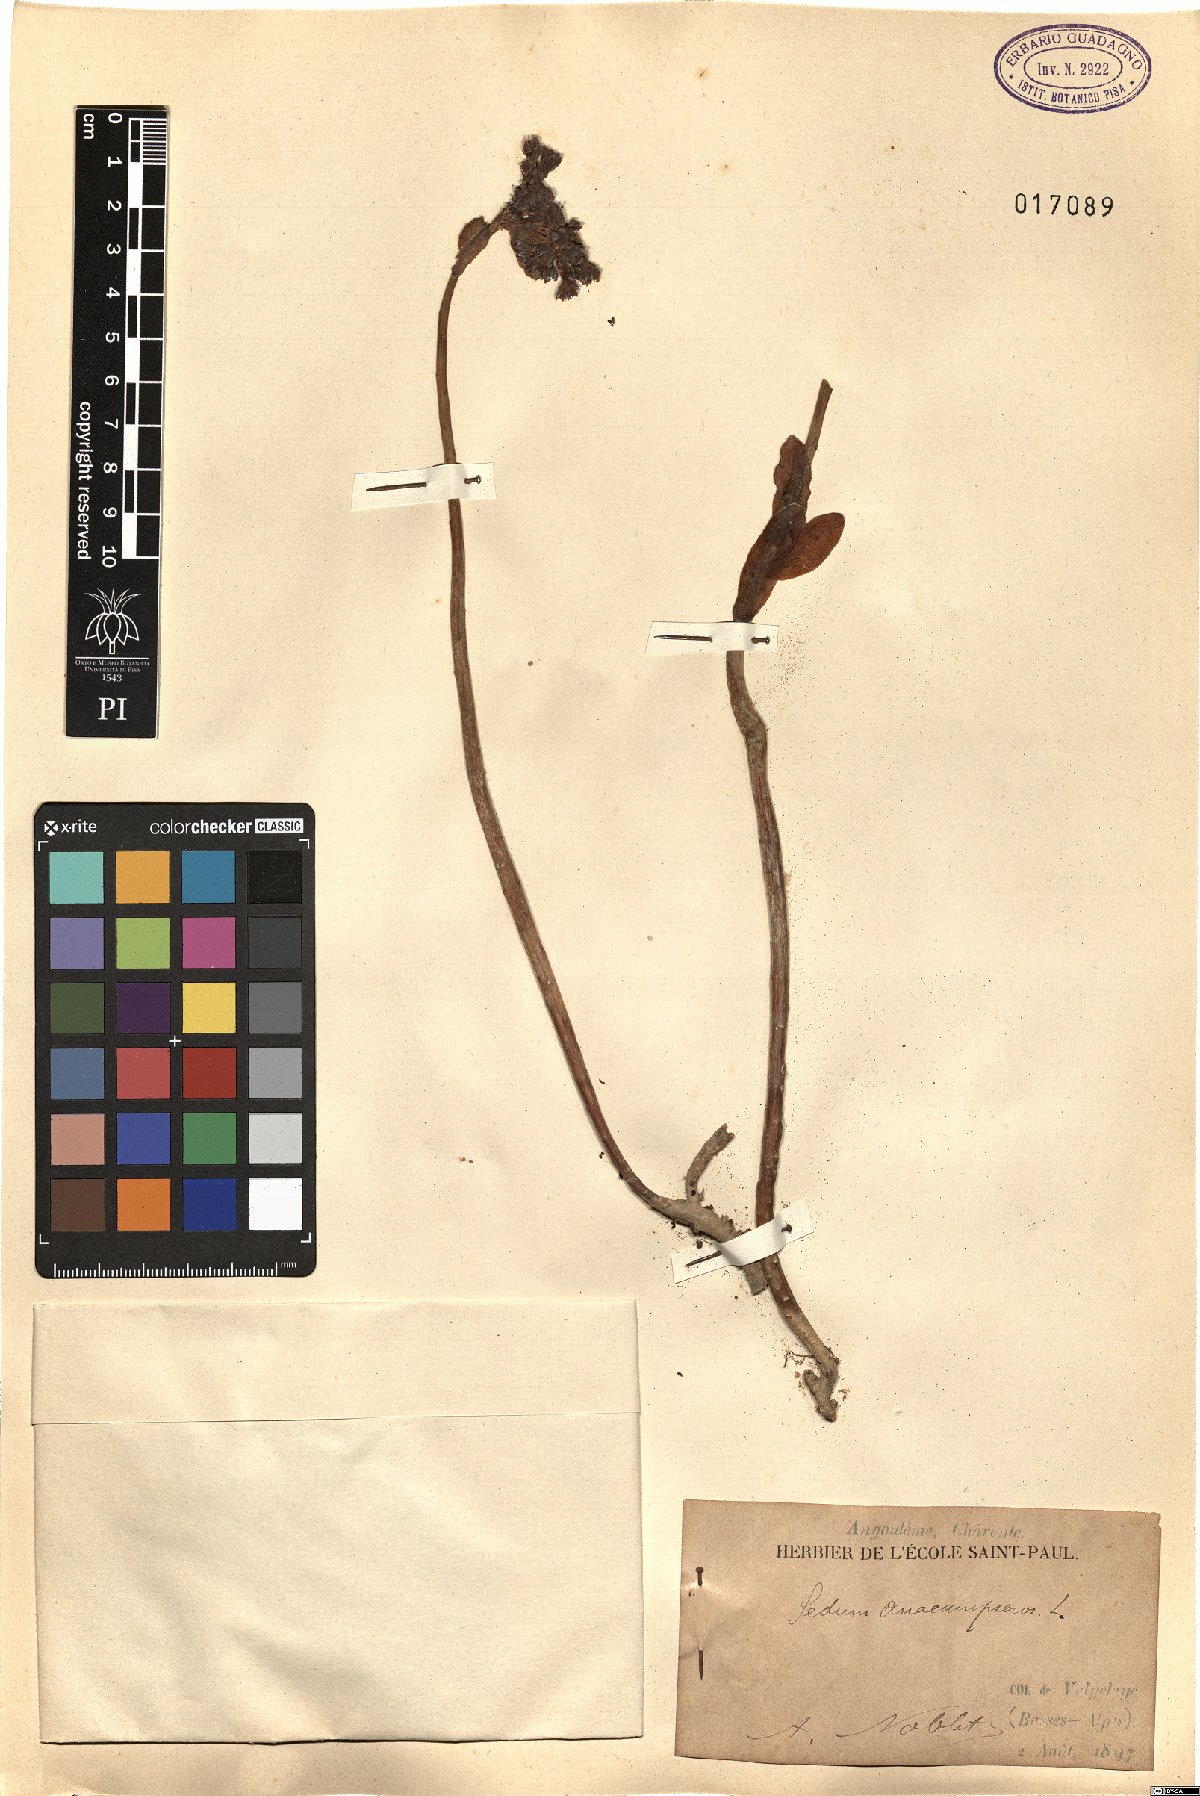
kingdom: Plantae
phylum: Tracheophyta
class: Magnoliopsida
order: Saxifragales
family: Crassulaceae
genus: Hylotelephium
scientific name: Hylotelephium anacampseros
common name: Love-restorer
